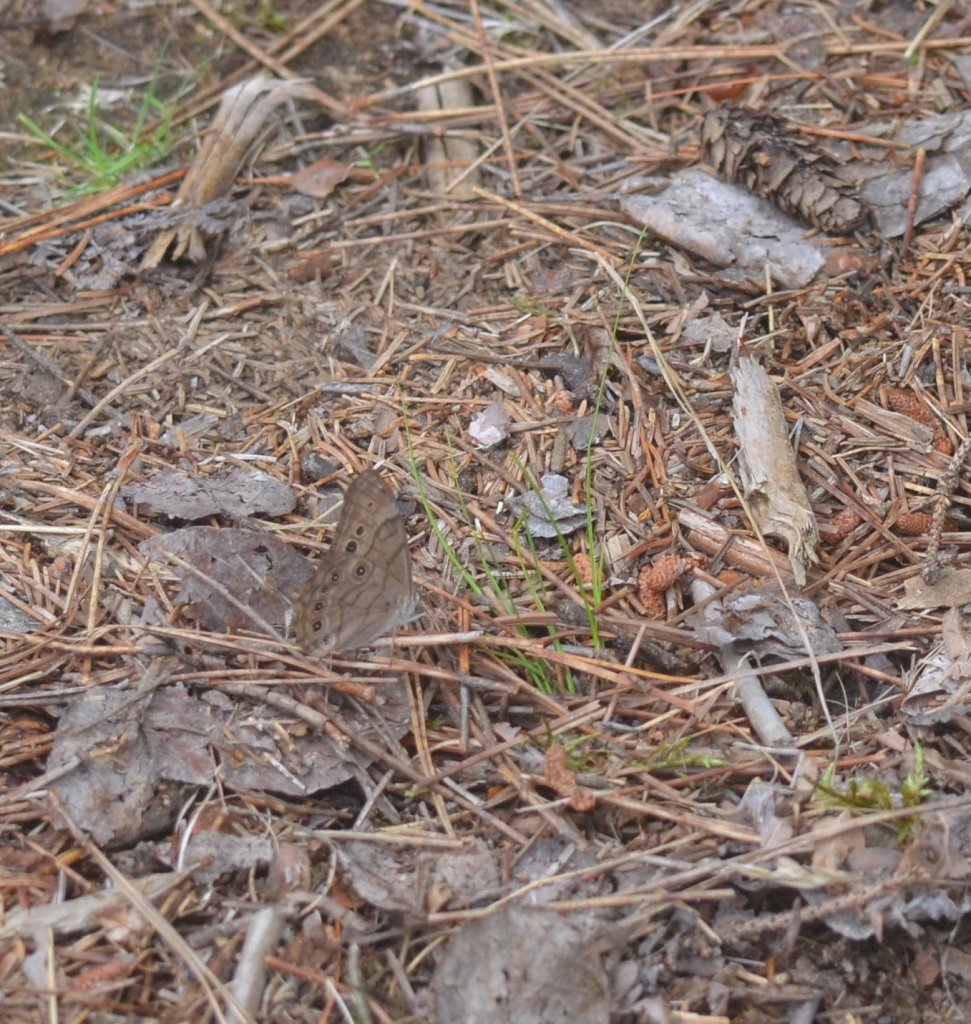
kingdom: Animalia
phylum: Arthropoda
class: Insecta
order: Lepidoptera
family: Nymphalidae
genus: Lethe
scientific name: Lethe anthedon
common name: Northern Pearly-Eye
